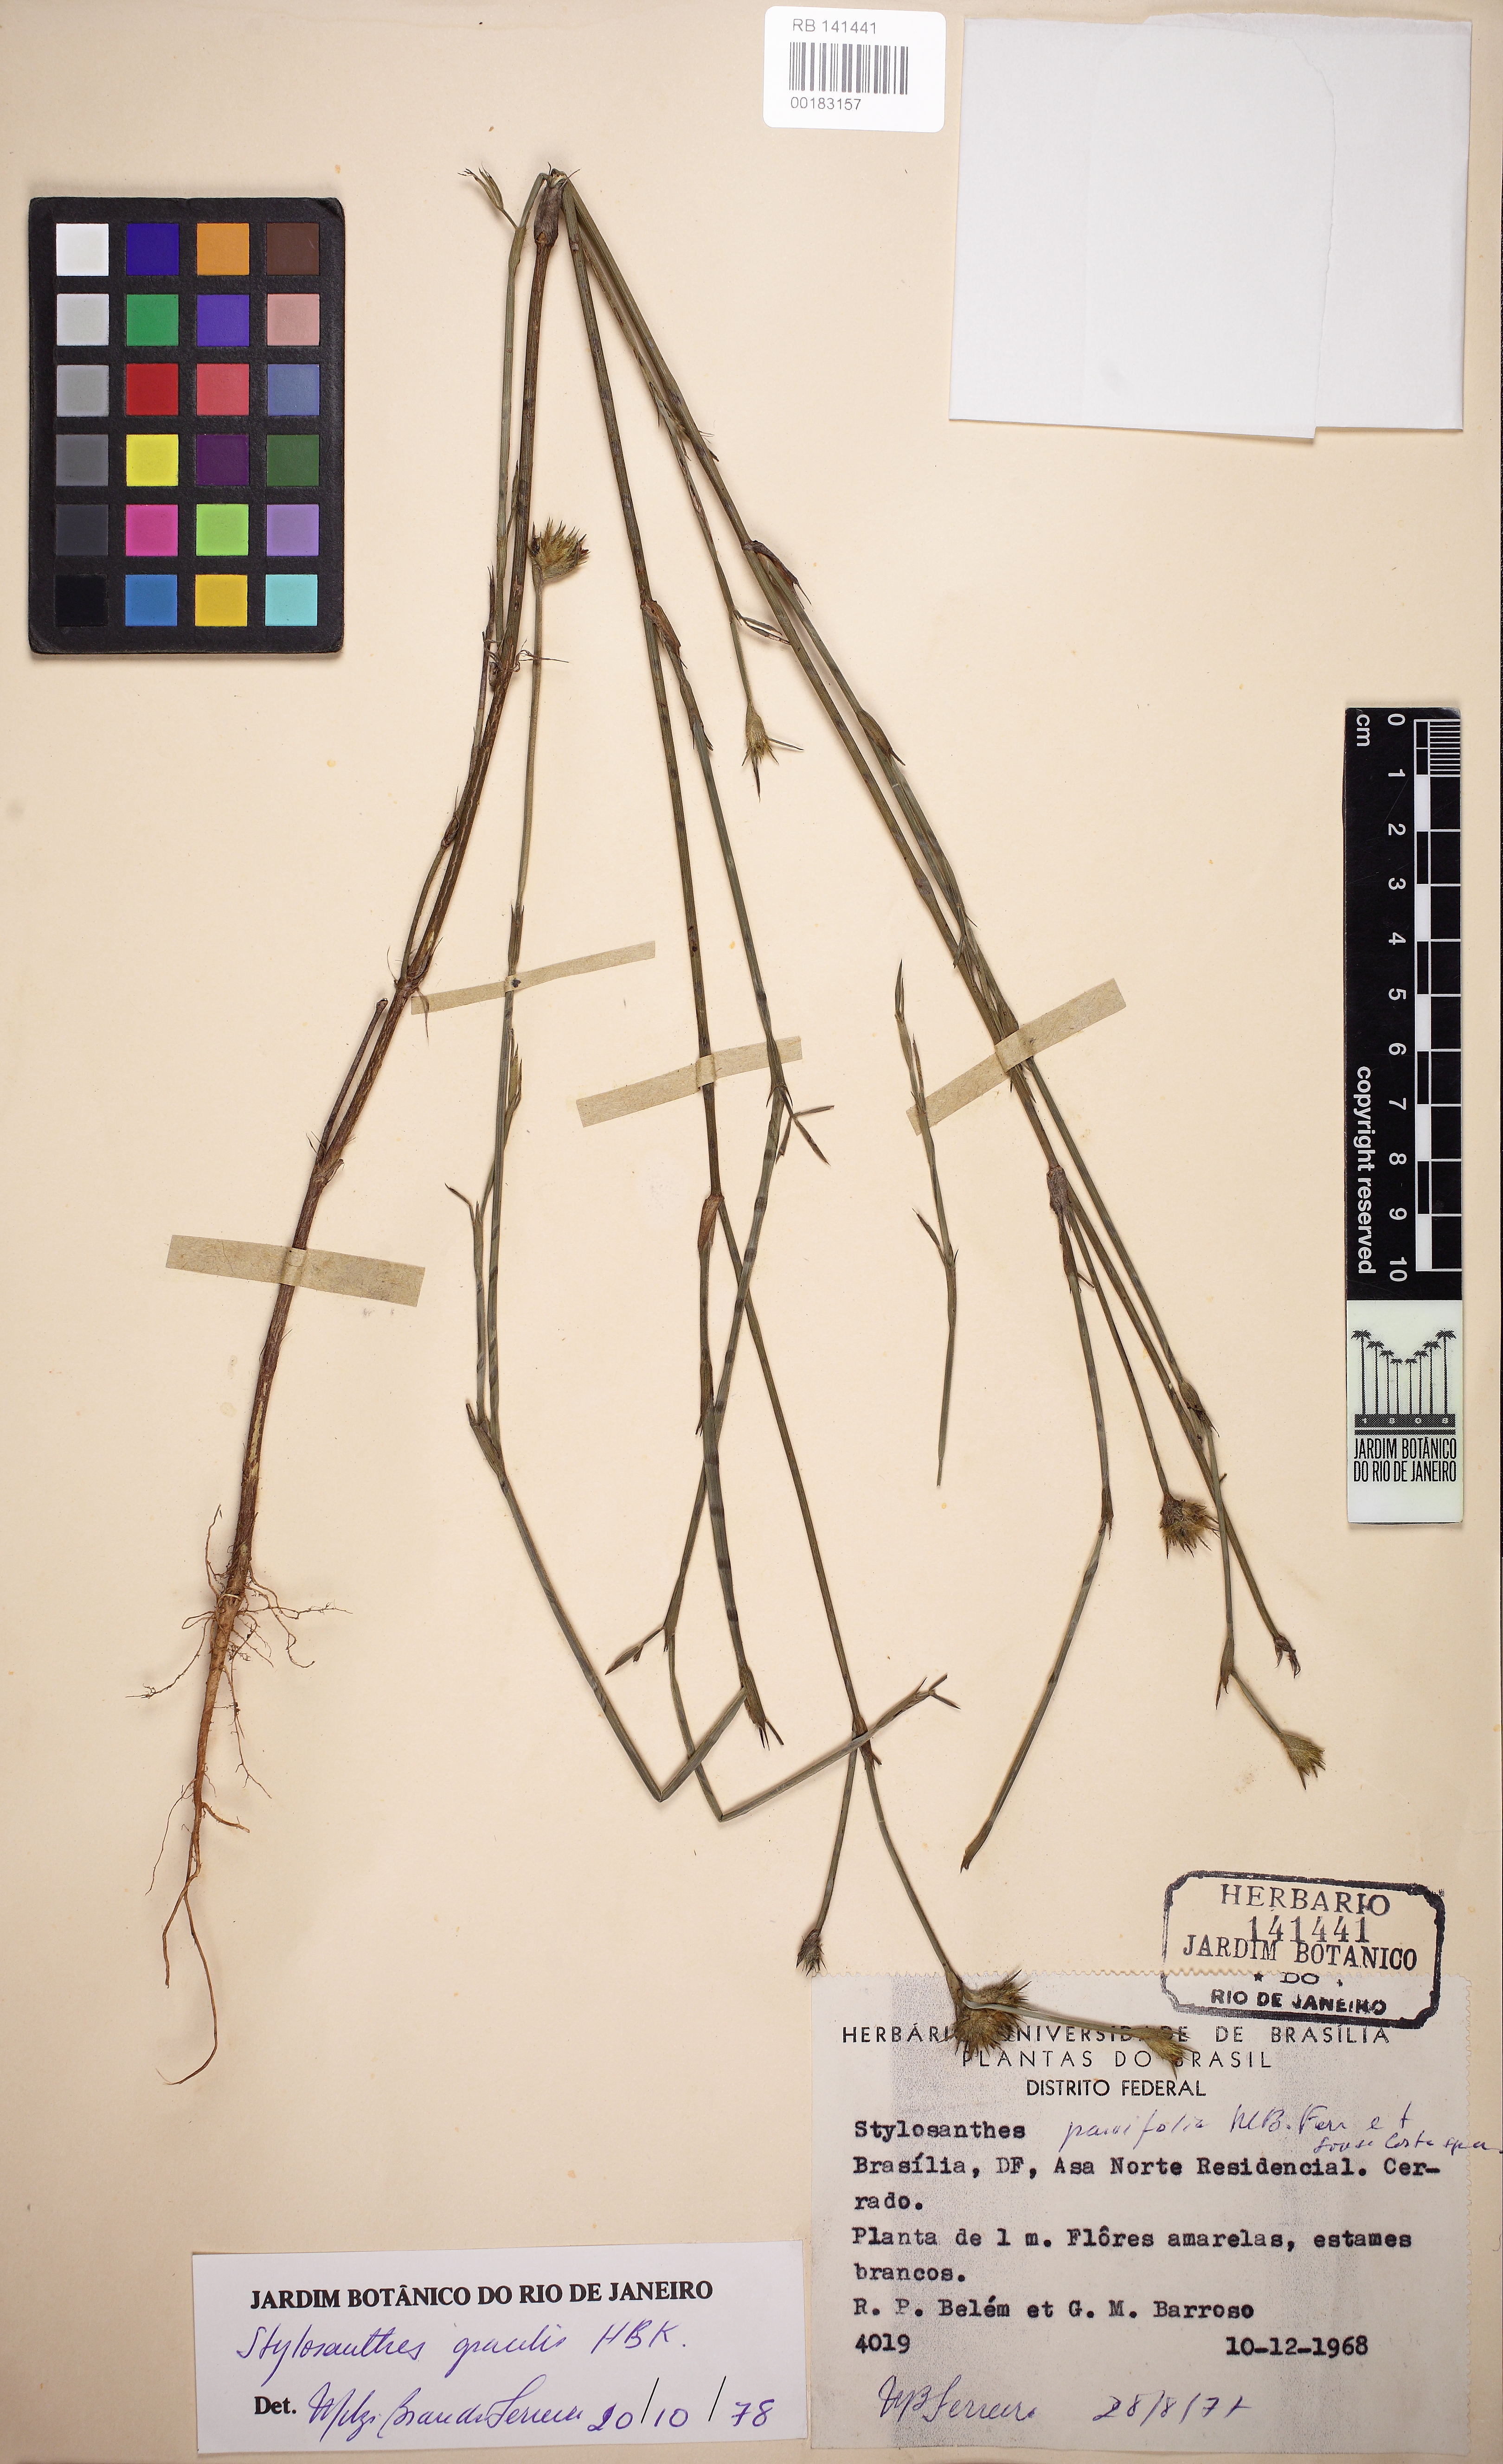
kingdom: Plantae
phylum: Tracheophyta
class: Magnoliopsida
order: Fabales
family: Fabaceae
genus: Stylosanthes
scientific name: Stylosanthes guianensis
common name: Pencil flower
